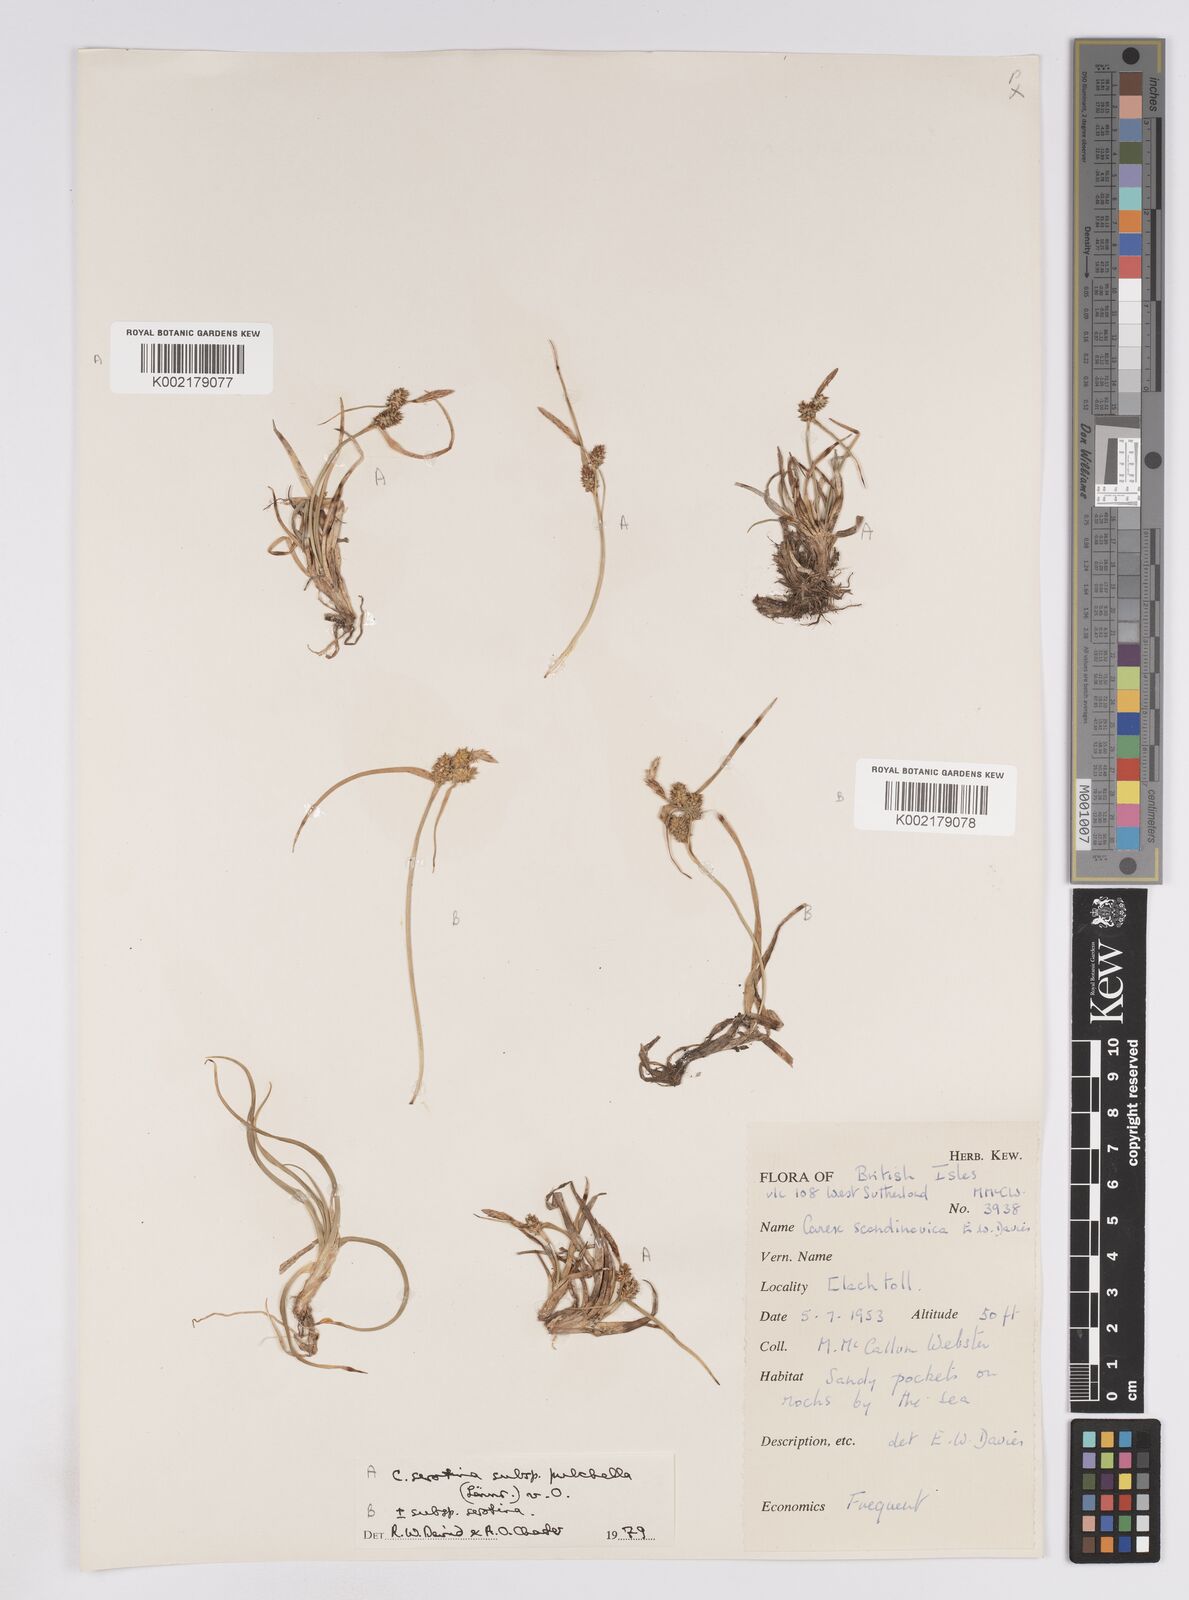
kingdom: Plantae
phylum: Tracheophyta
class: Liliopsida
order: Poales
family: Cyperaceae
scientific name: Cyperaceae
